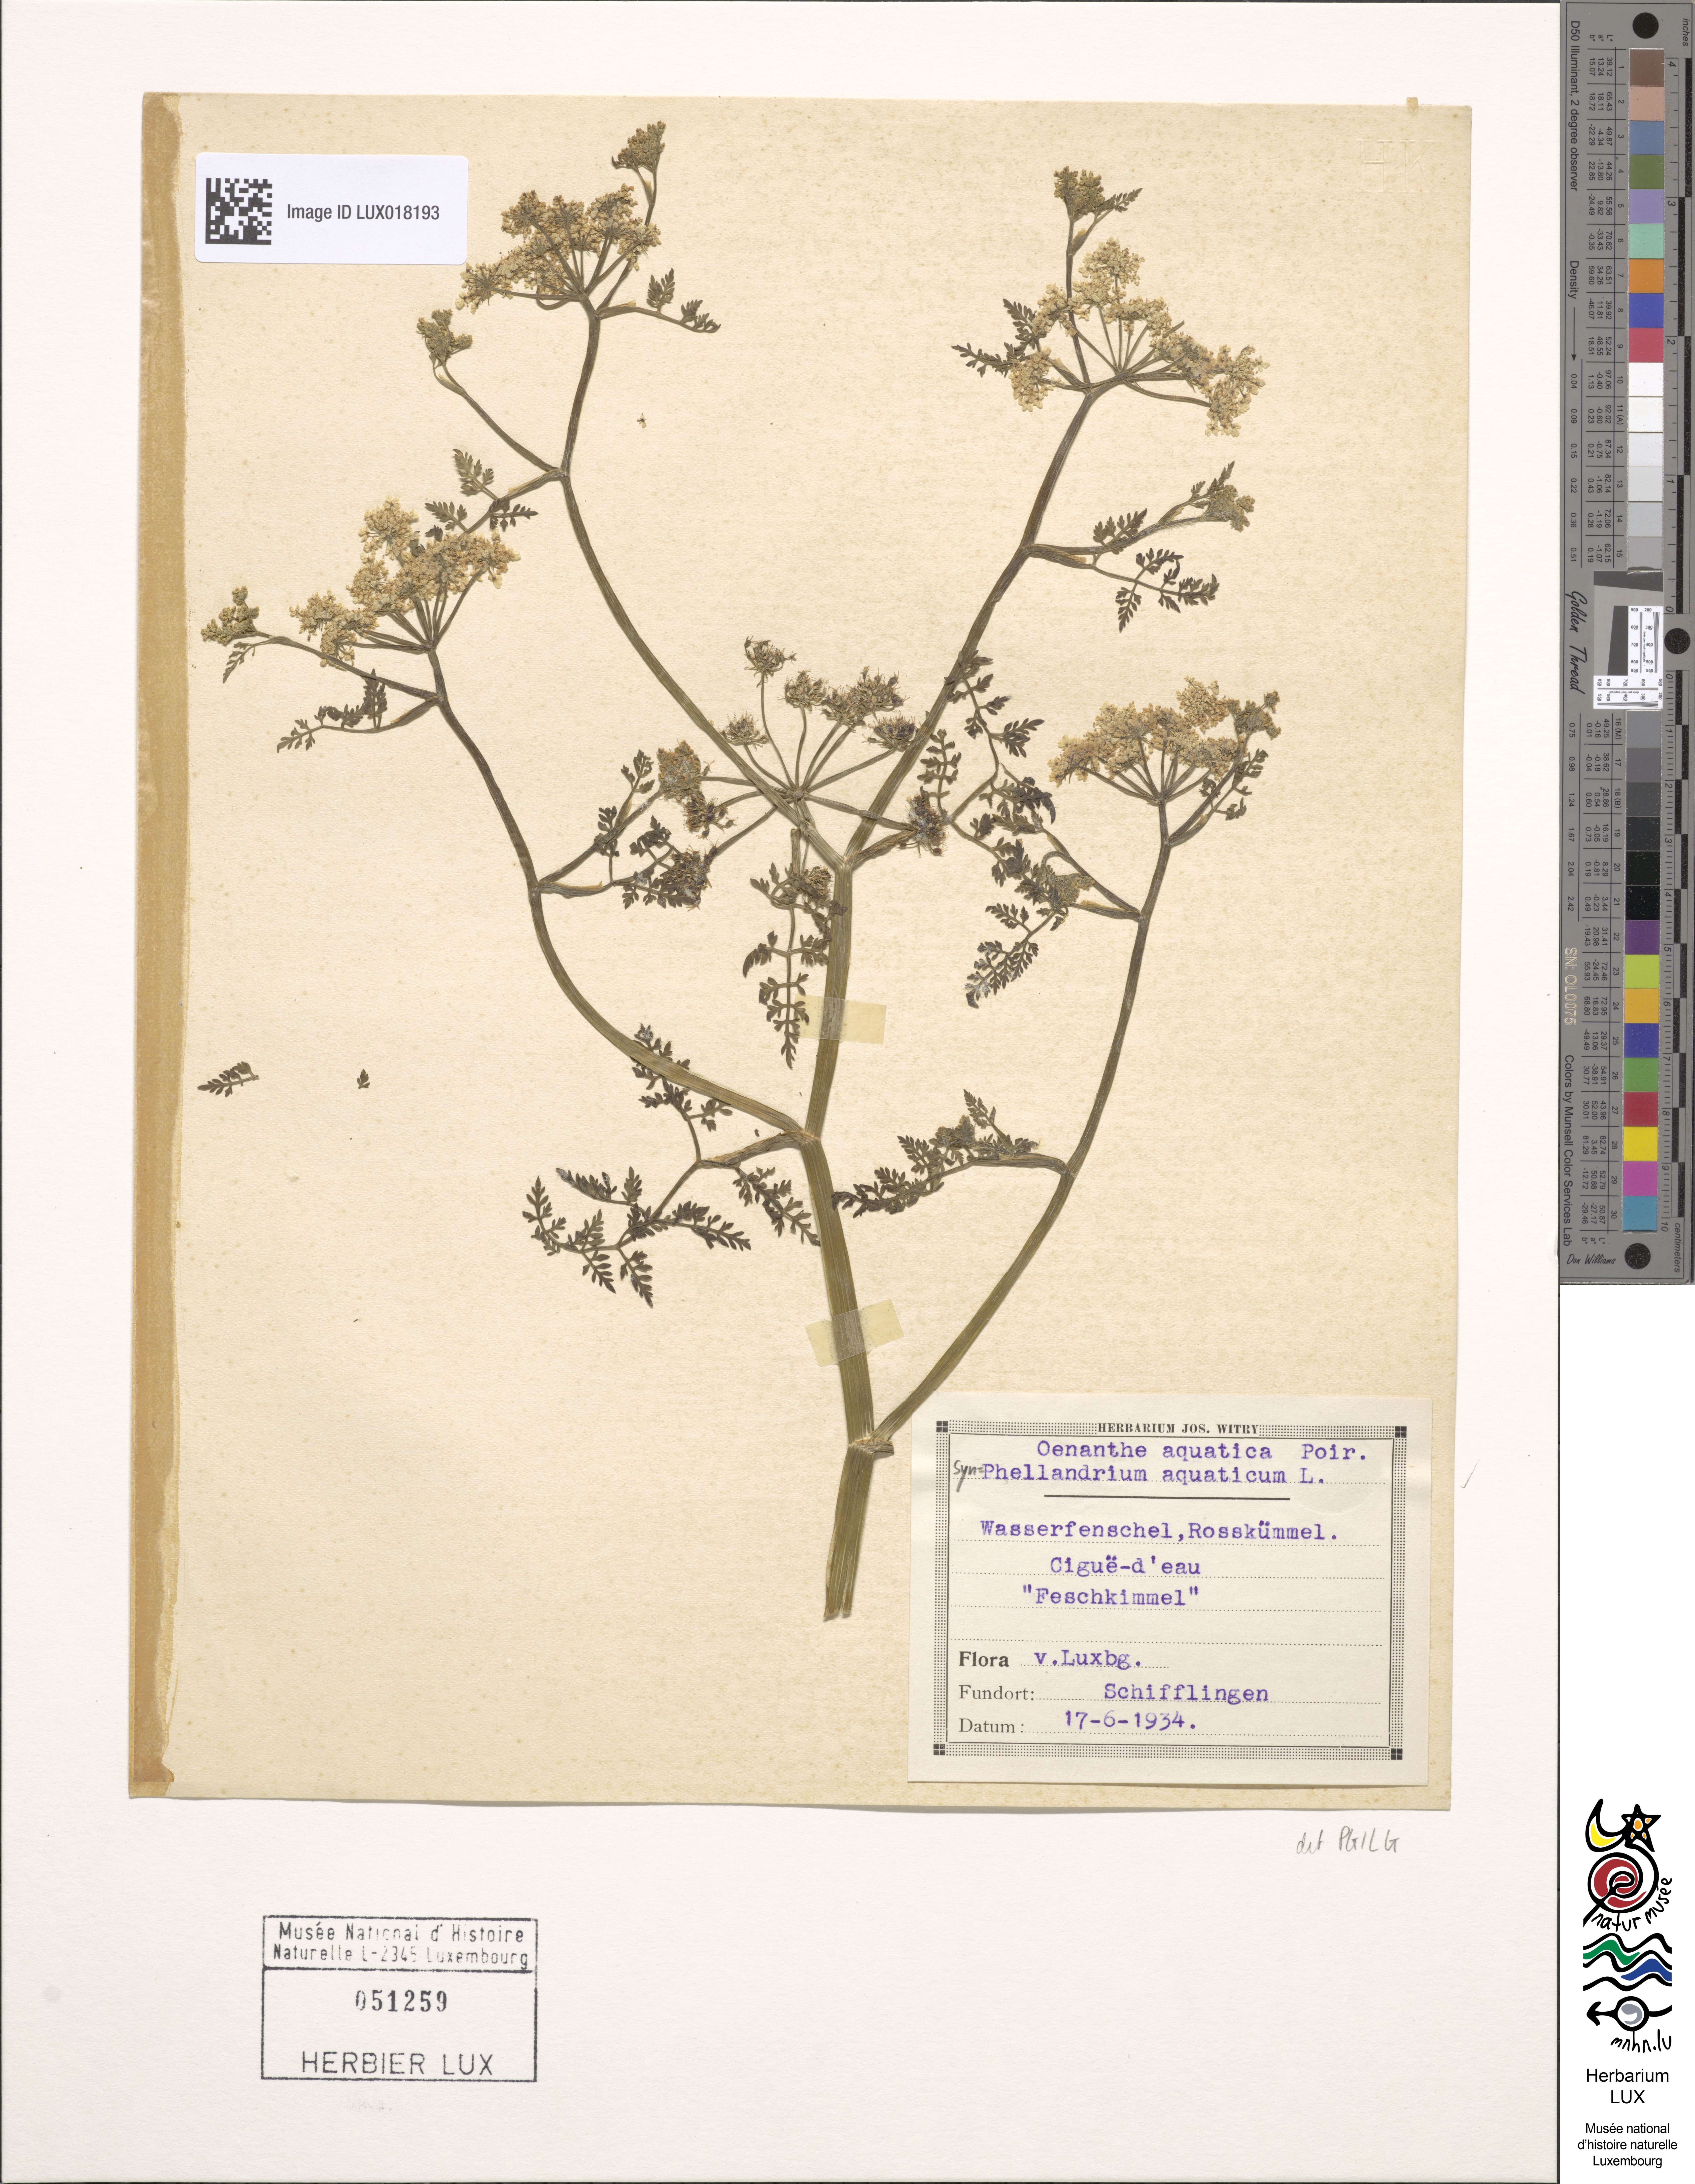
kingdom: Plantae
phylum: Tracheophyta
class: Magnoliopsida
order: Apiales
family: Apiaceae
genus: Oenanthe
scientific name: Oenanthe aquatica
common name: Fine-leaved water-dropwort
